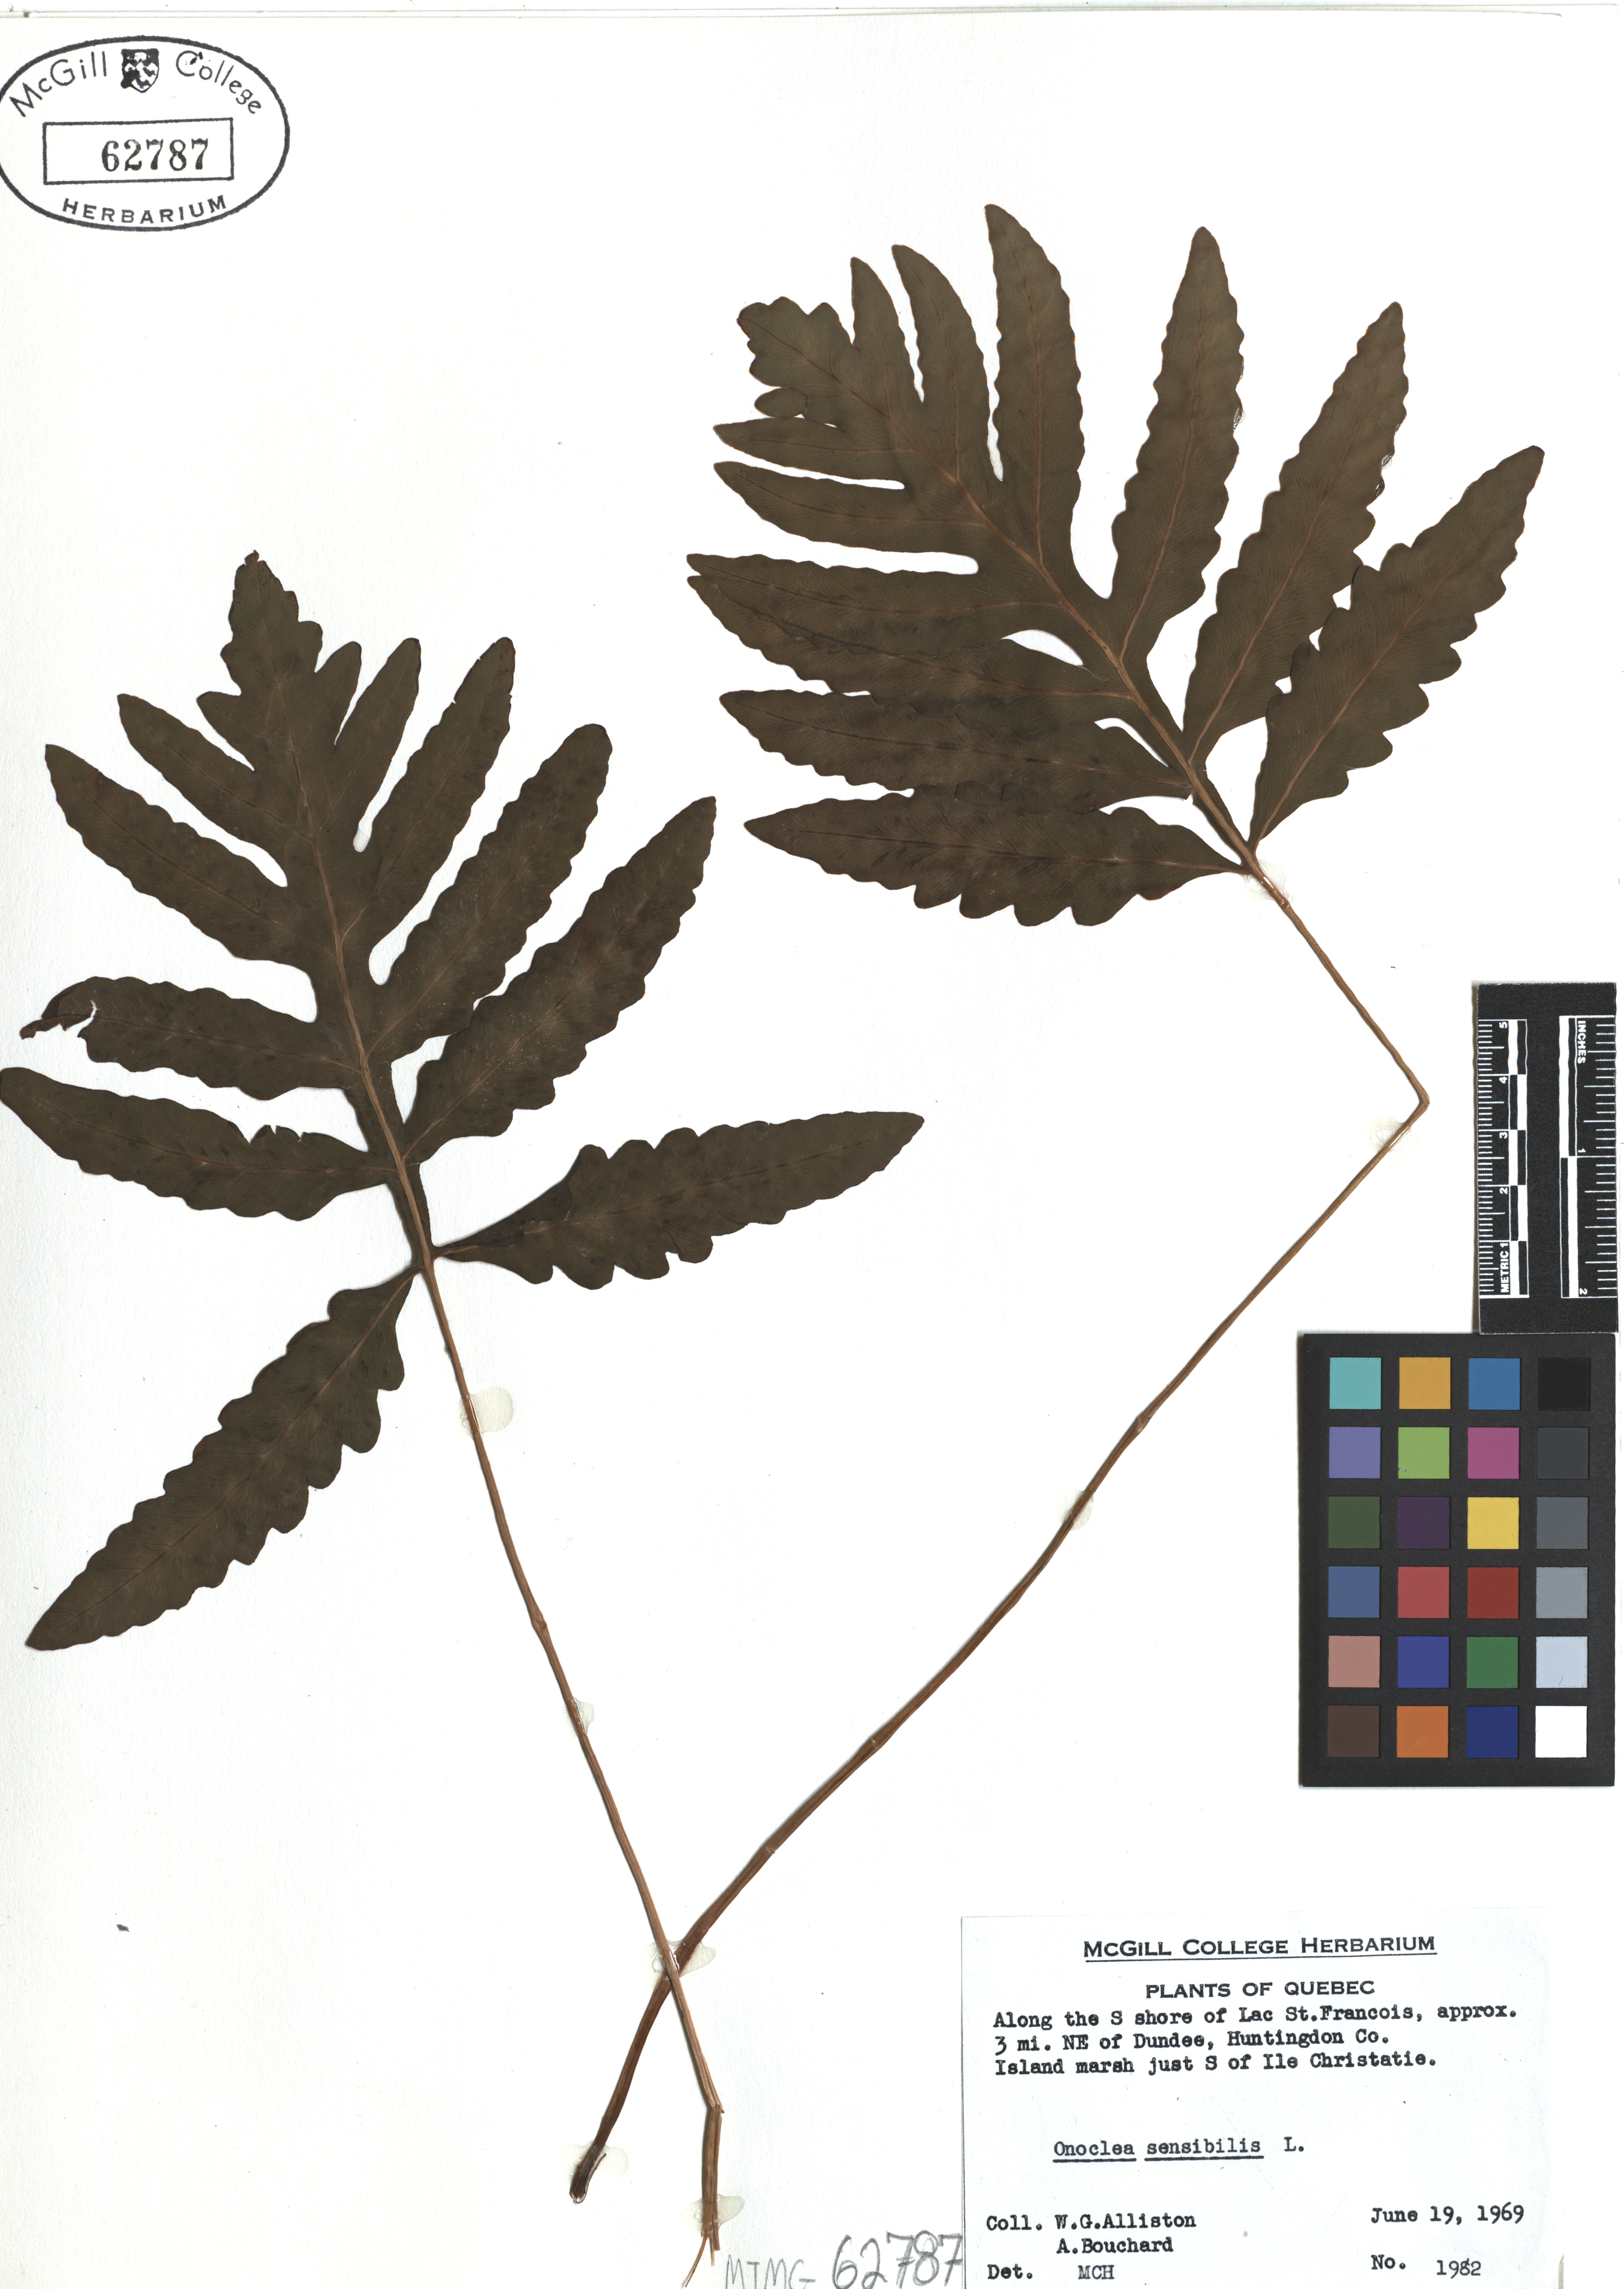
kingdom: Plantae
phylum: Tracheophyta
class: Polypodiopsida
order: Polypodiales
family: Onocleaceae
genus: Onoclea
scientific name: Onoclea sensibilis
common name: Sensitive fern
